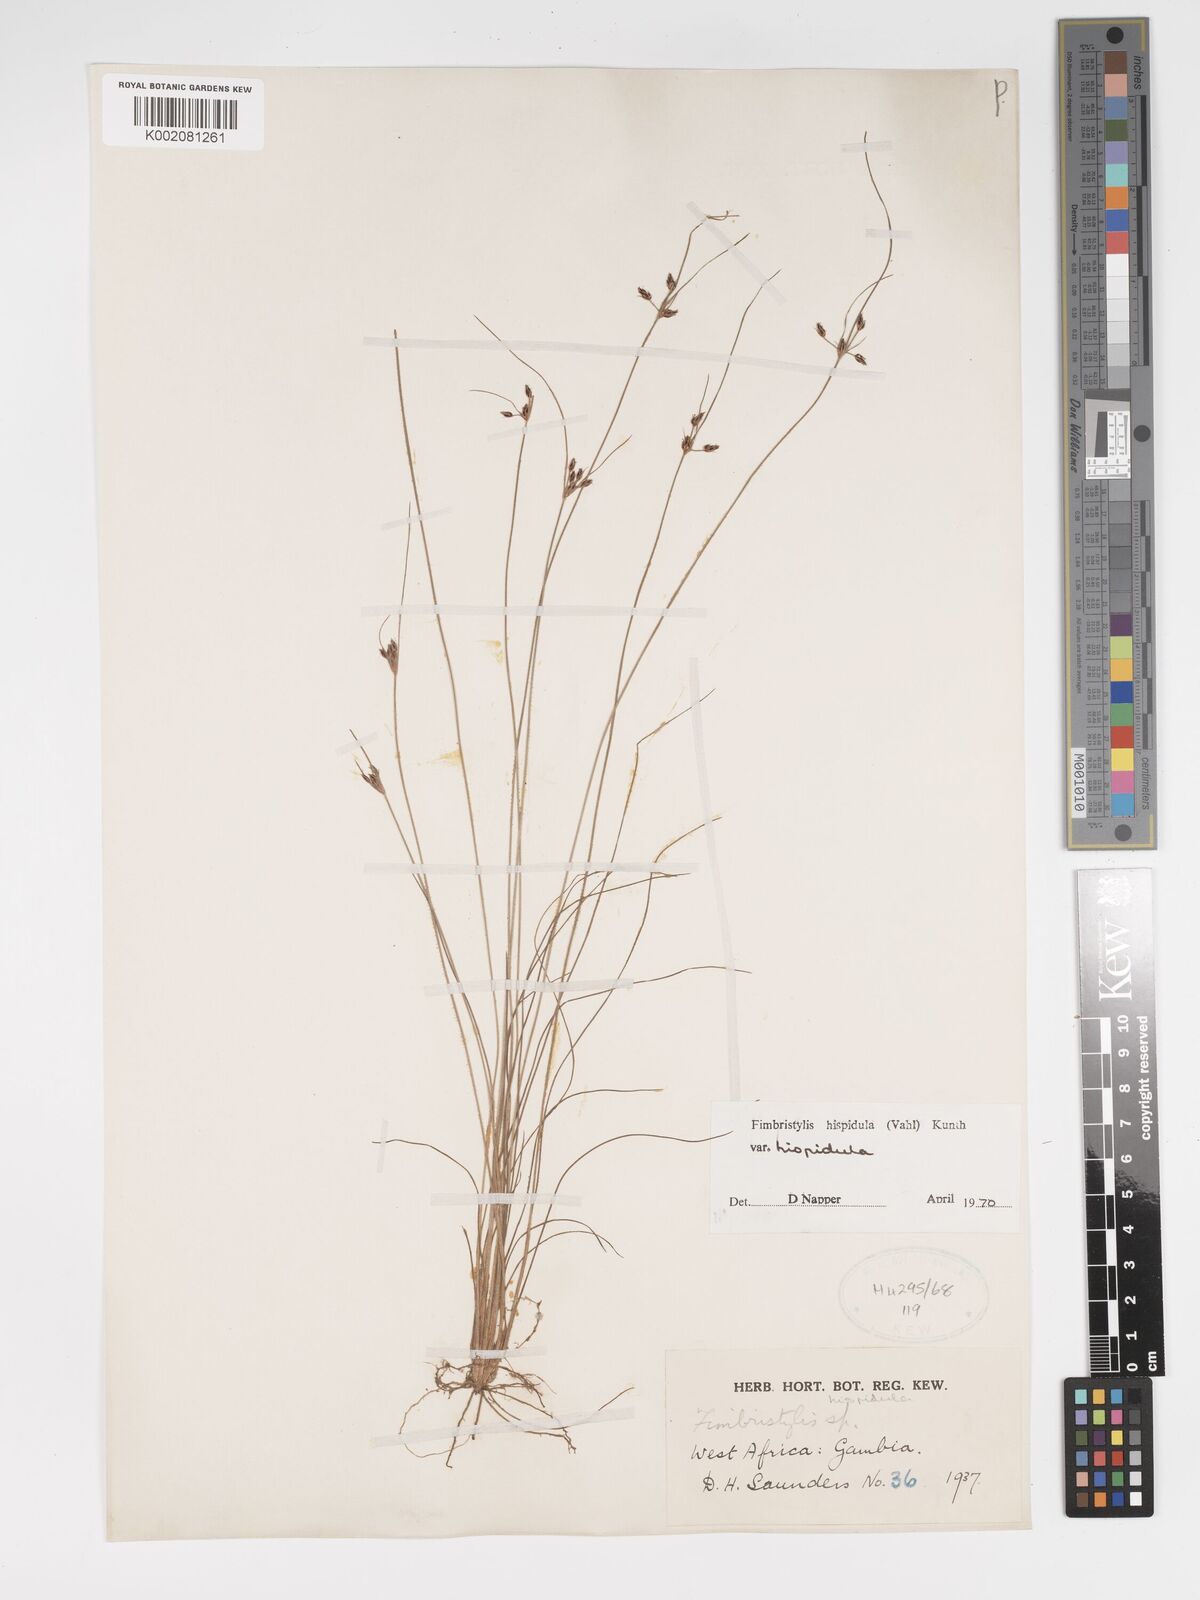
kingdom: Plantae
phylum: Tracheophyta
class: Liliopsida
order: Poales
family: Cyperaceae
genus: Bulbostylis
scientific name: Bulbostylis hispidula
